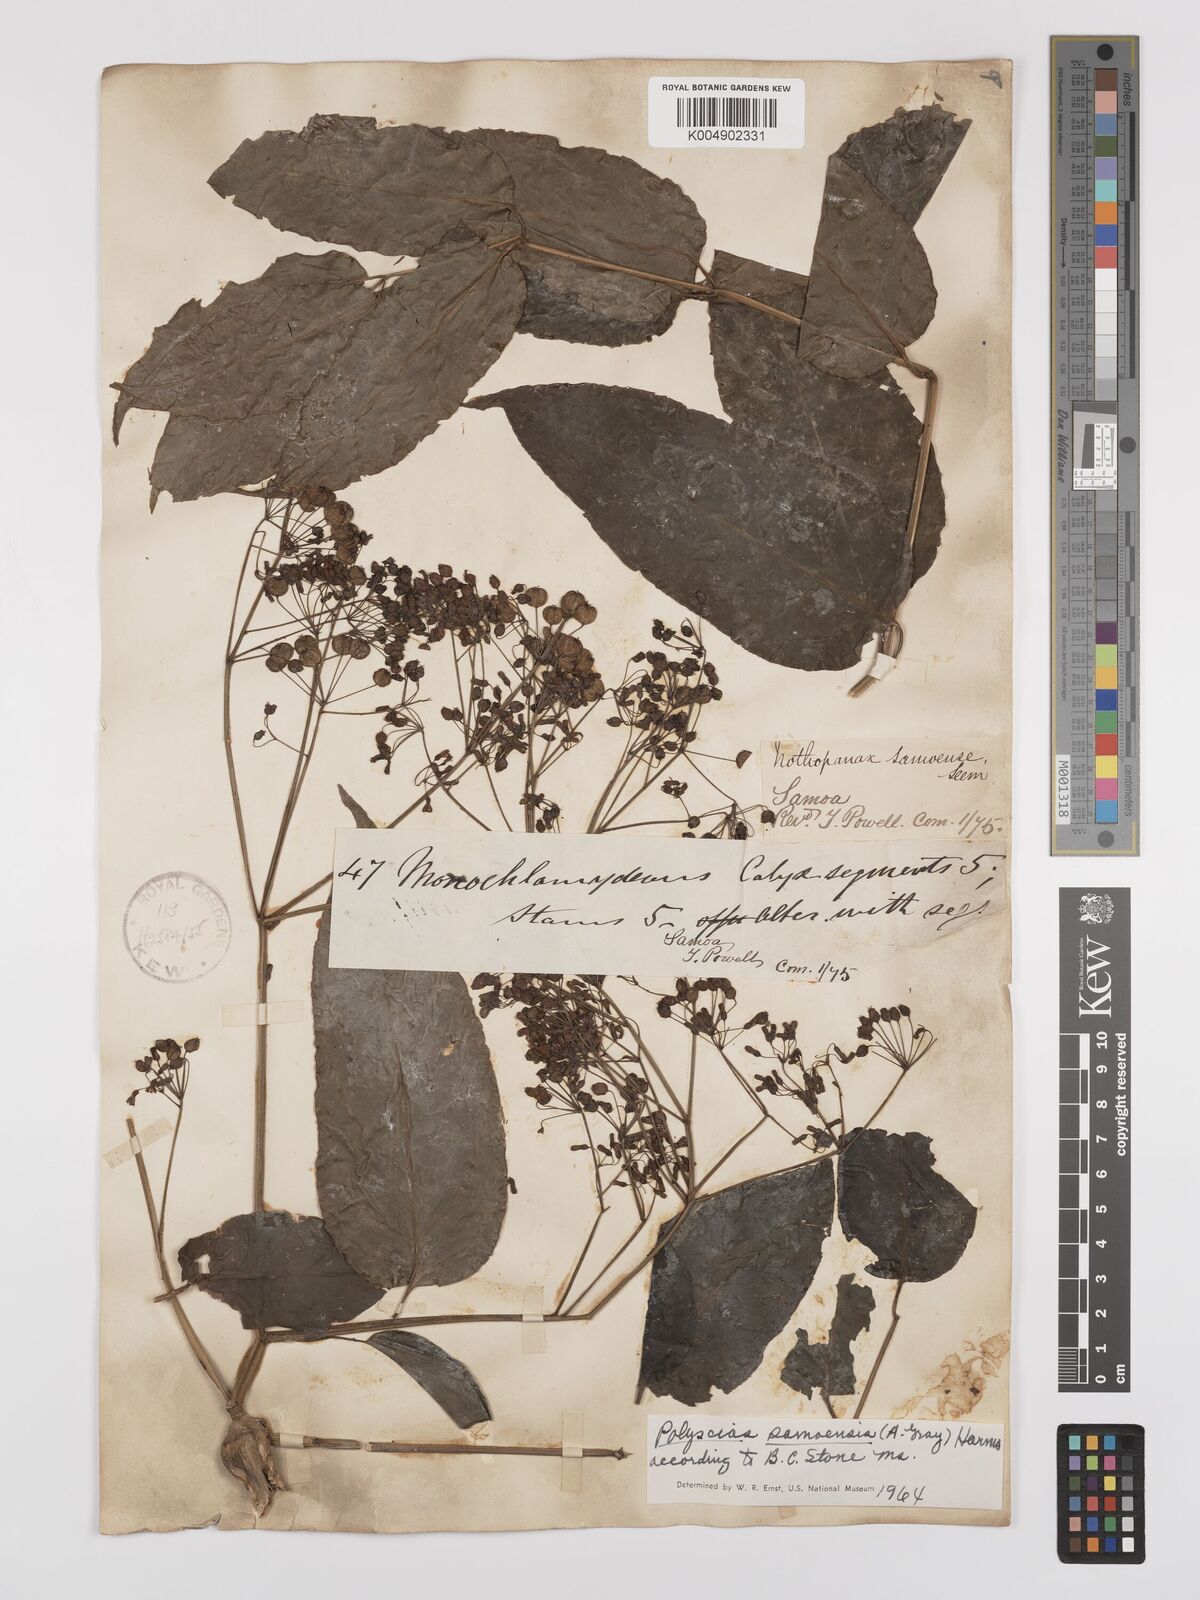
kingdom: Plantae
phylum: Tracheophyta
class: Magnoliopsida
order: Apiales
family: Araliaceae
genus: Polyscias
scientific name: Polyscias samoensis
